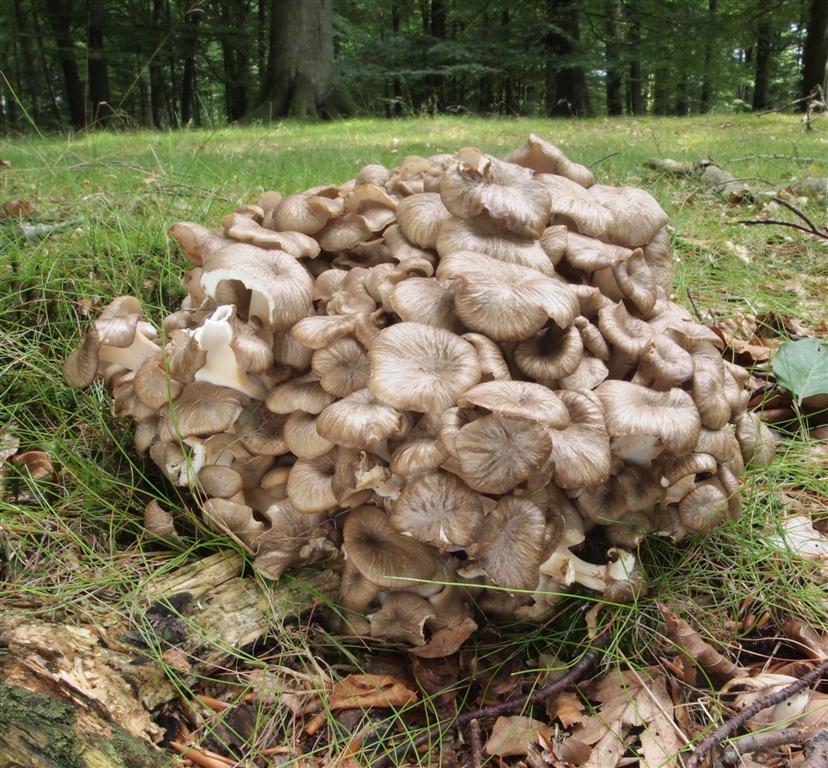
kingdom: Fungi
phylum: Basidiomycota
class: Agaricomycetes
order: Polyporales
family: Polyporaceae
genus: Polyporus
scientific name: Polyporus umbellatus
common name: skærmformet stilkporesvamp
